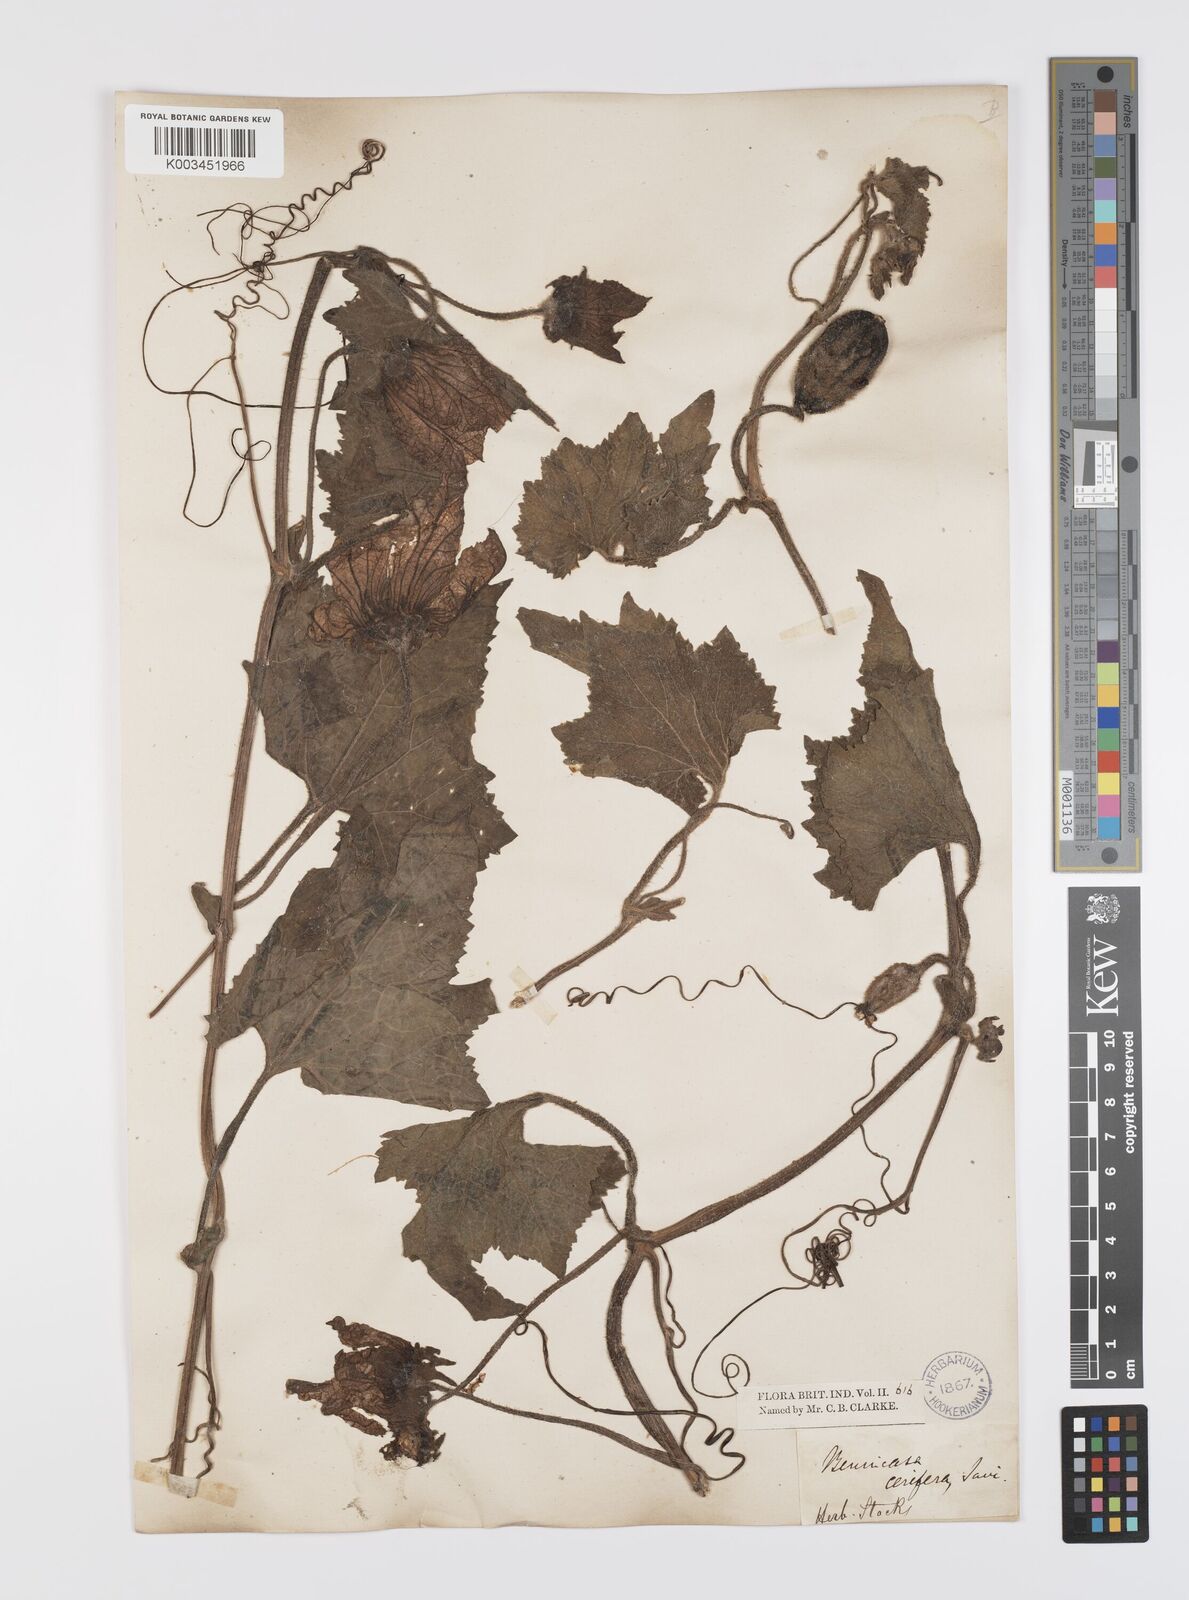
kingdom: Plantae
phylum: Tracheophyta
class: Magnoliopsida
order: Cucurbitales
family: Cucurbitaceae
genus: Benincasa
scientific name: Benincasa hispida
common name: Chinese-watermelon
